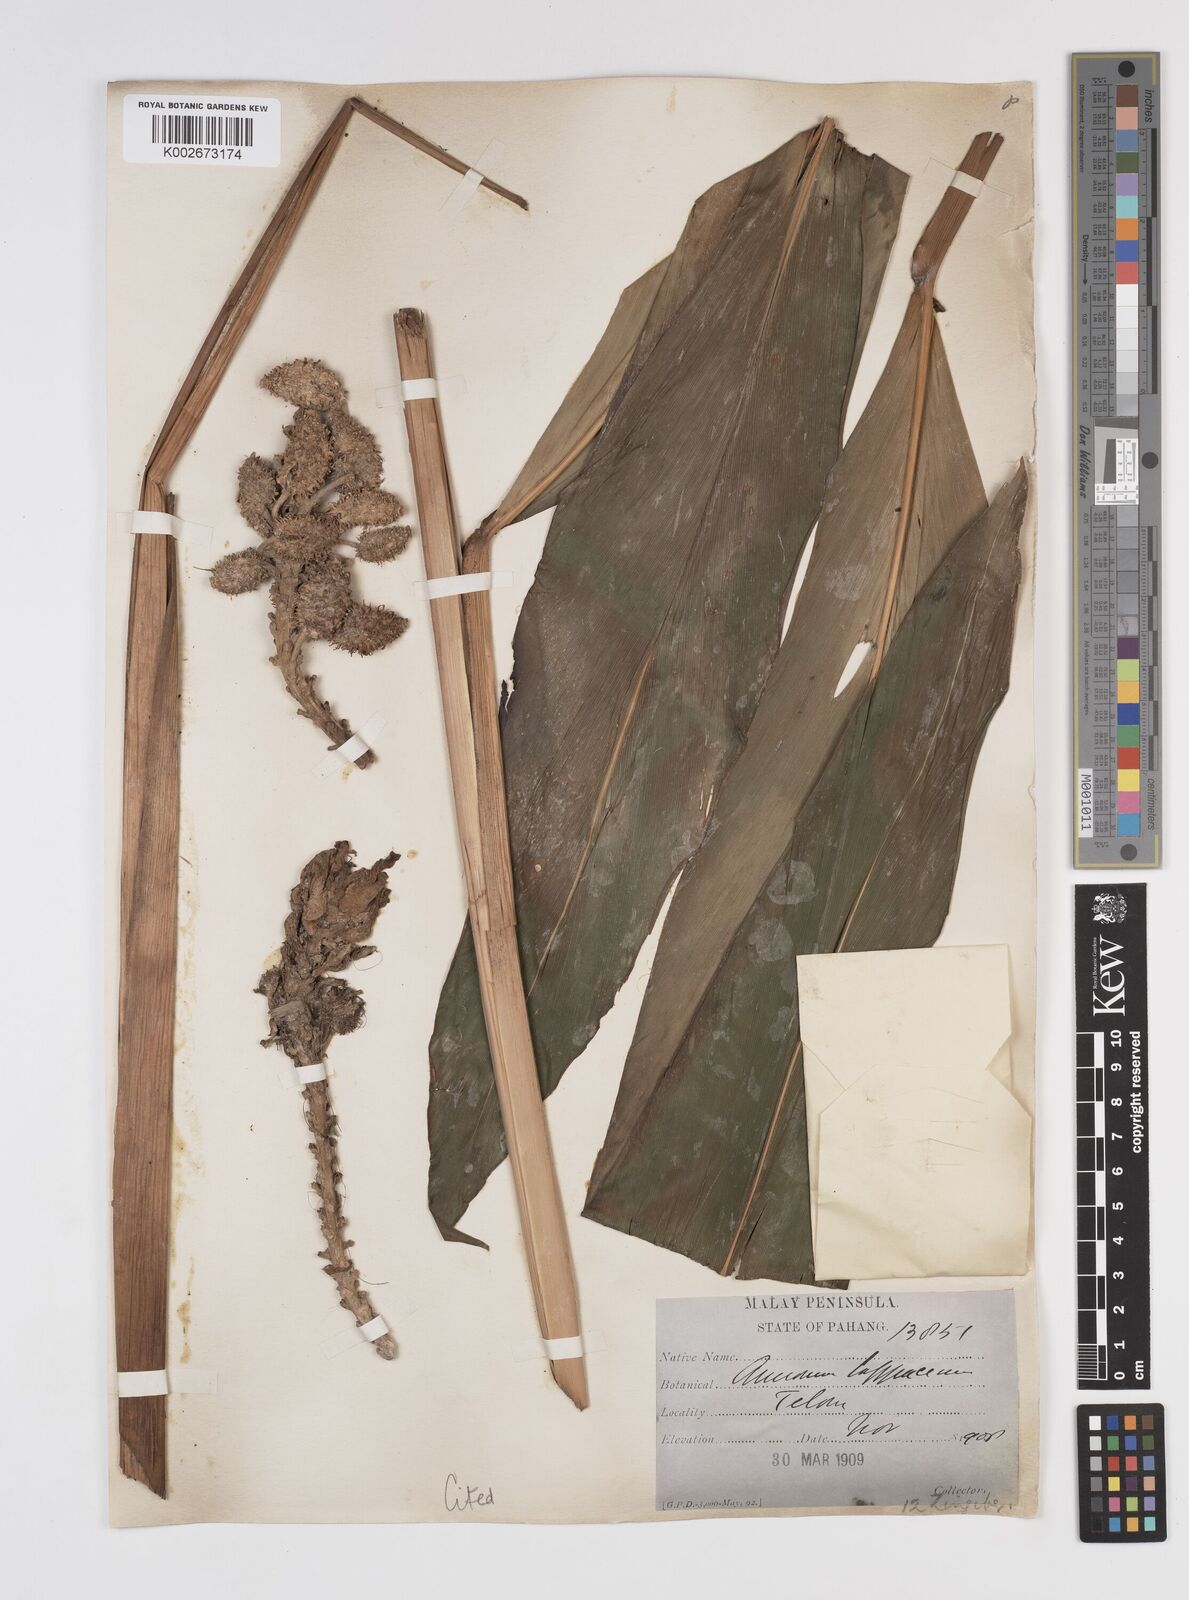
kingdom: Plantae
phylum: Tracheophyta
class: Liliopsida
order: Zingiberales
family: Zingiberaceae
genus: Meistera
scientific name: Meistera lappacea
